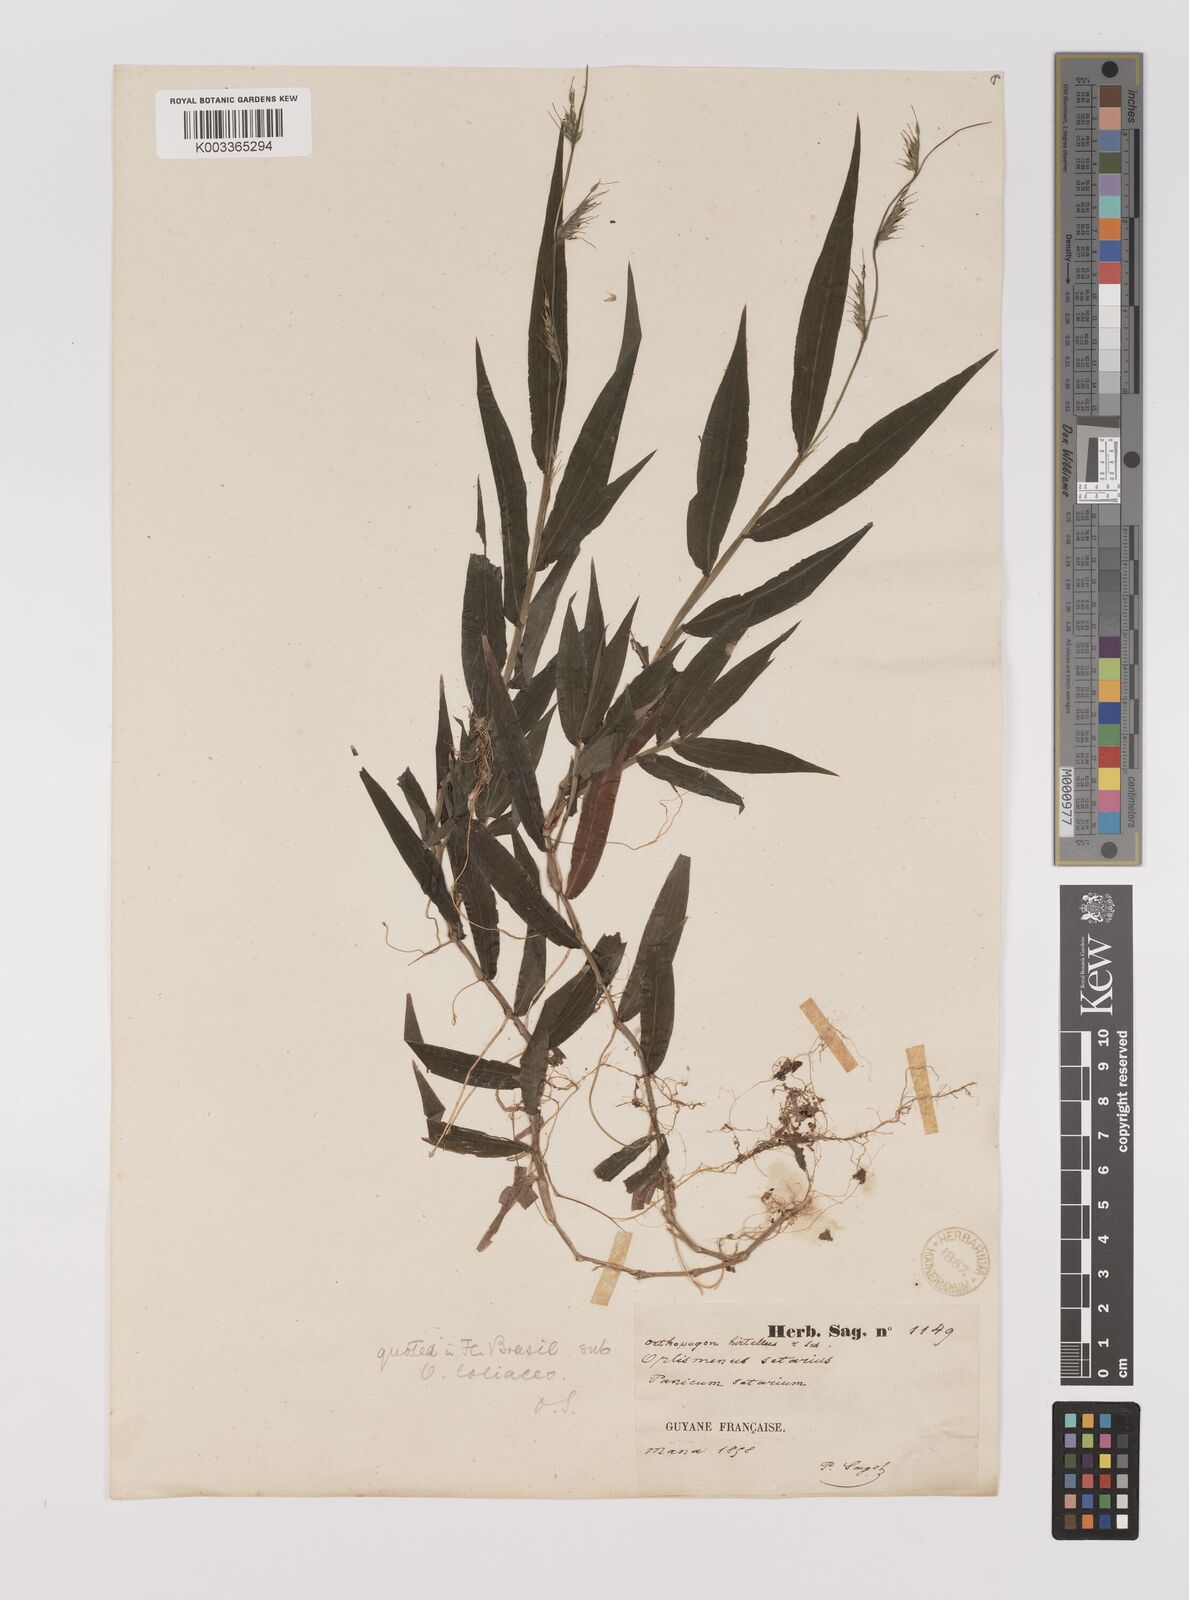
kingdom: Plantae
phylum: Tracheophyta
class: Liliopsida
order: Poales
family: Poaceae
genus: Oplismenus
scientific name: Oplismenus hirtellus
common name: Basketgrass
